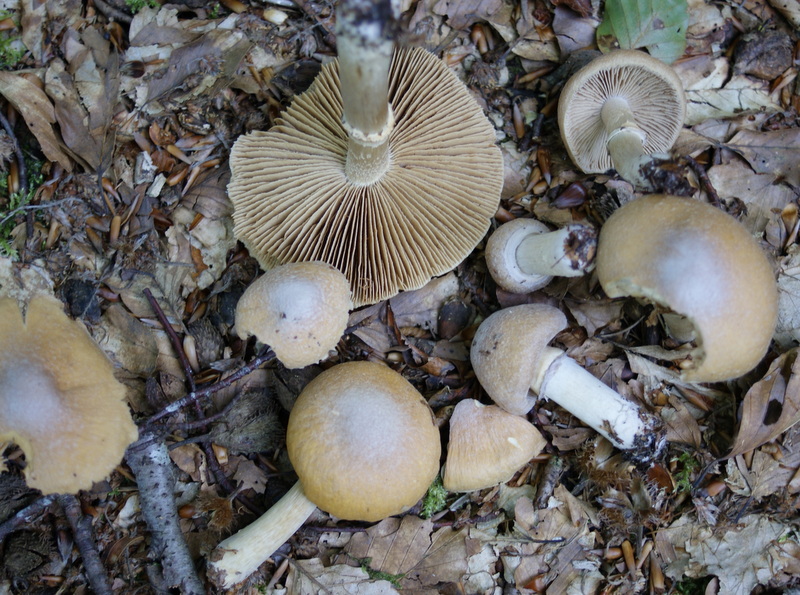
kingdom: Fungi
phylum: Basidiomycota
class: Agaricomycetes
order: Agaricales
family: Cortinariaceae
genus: Cortinarius
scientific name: Cortinarius caperatus
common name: klidhat
